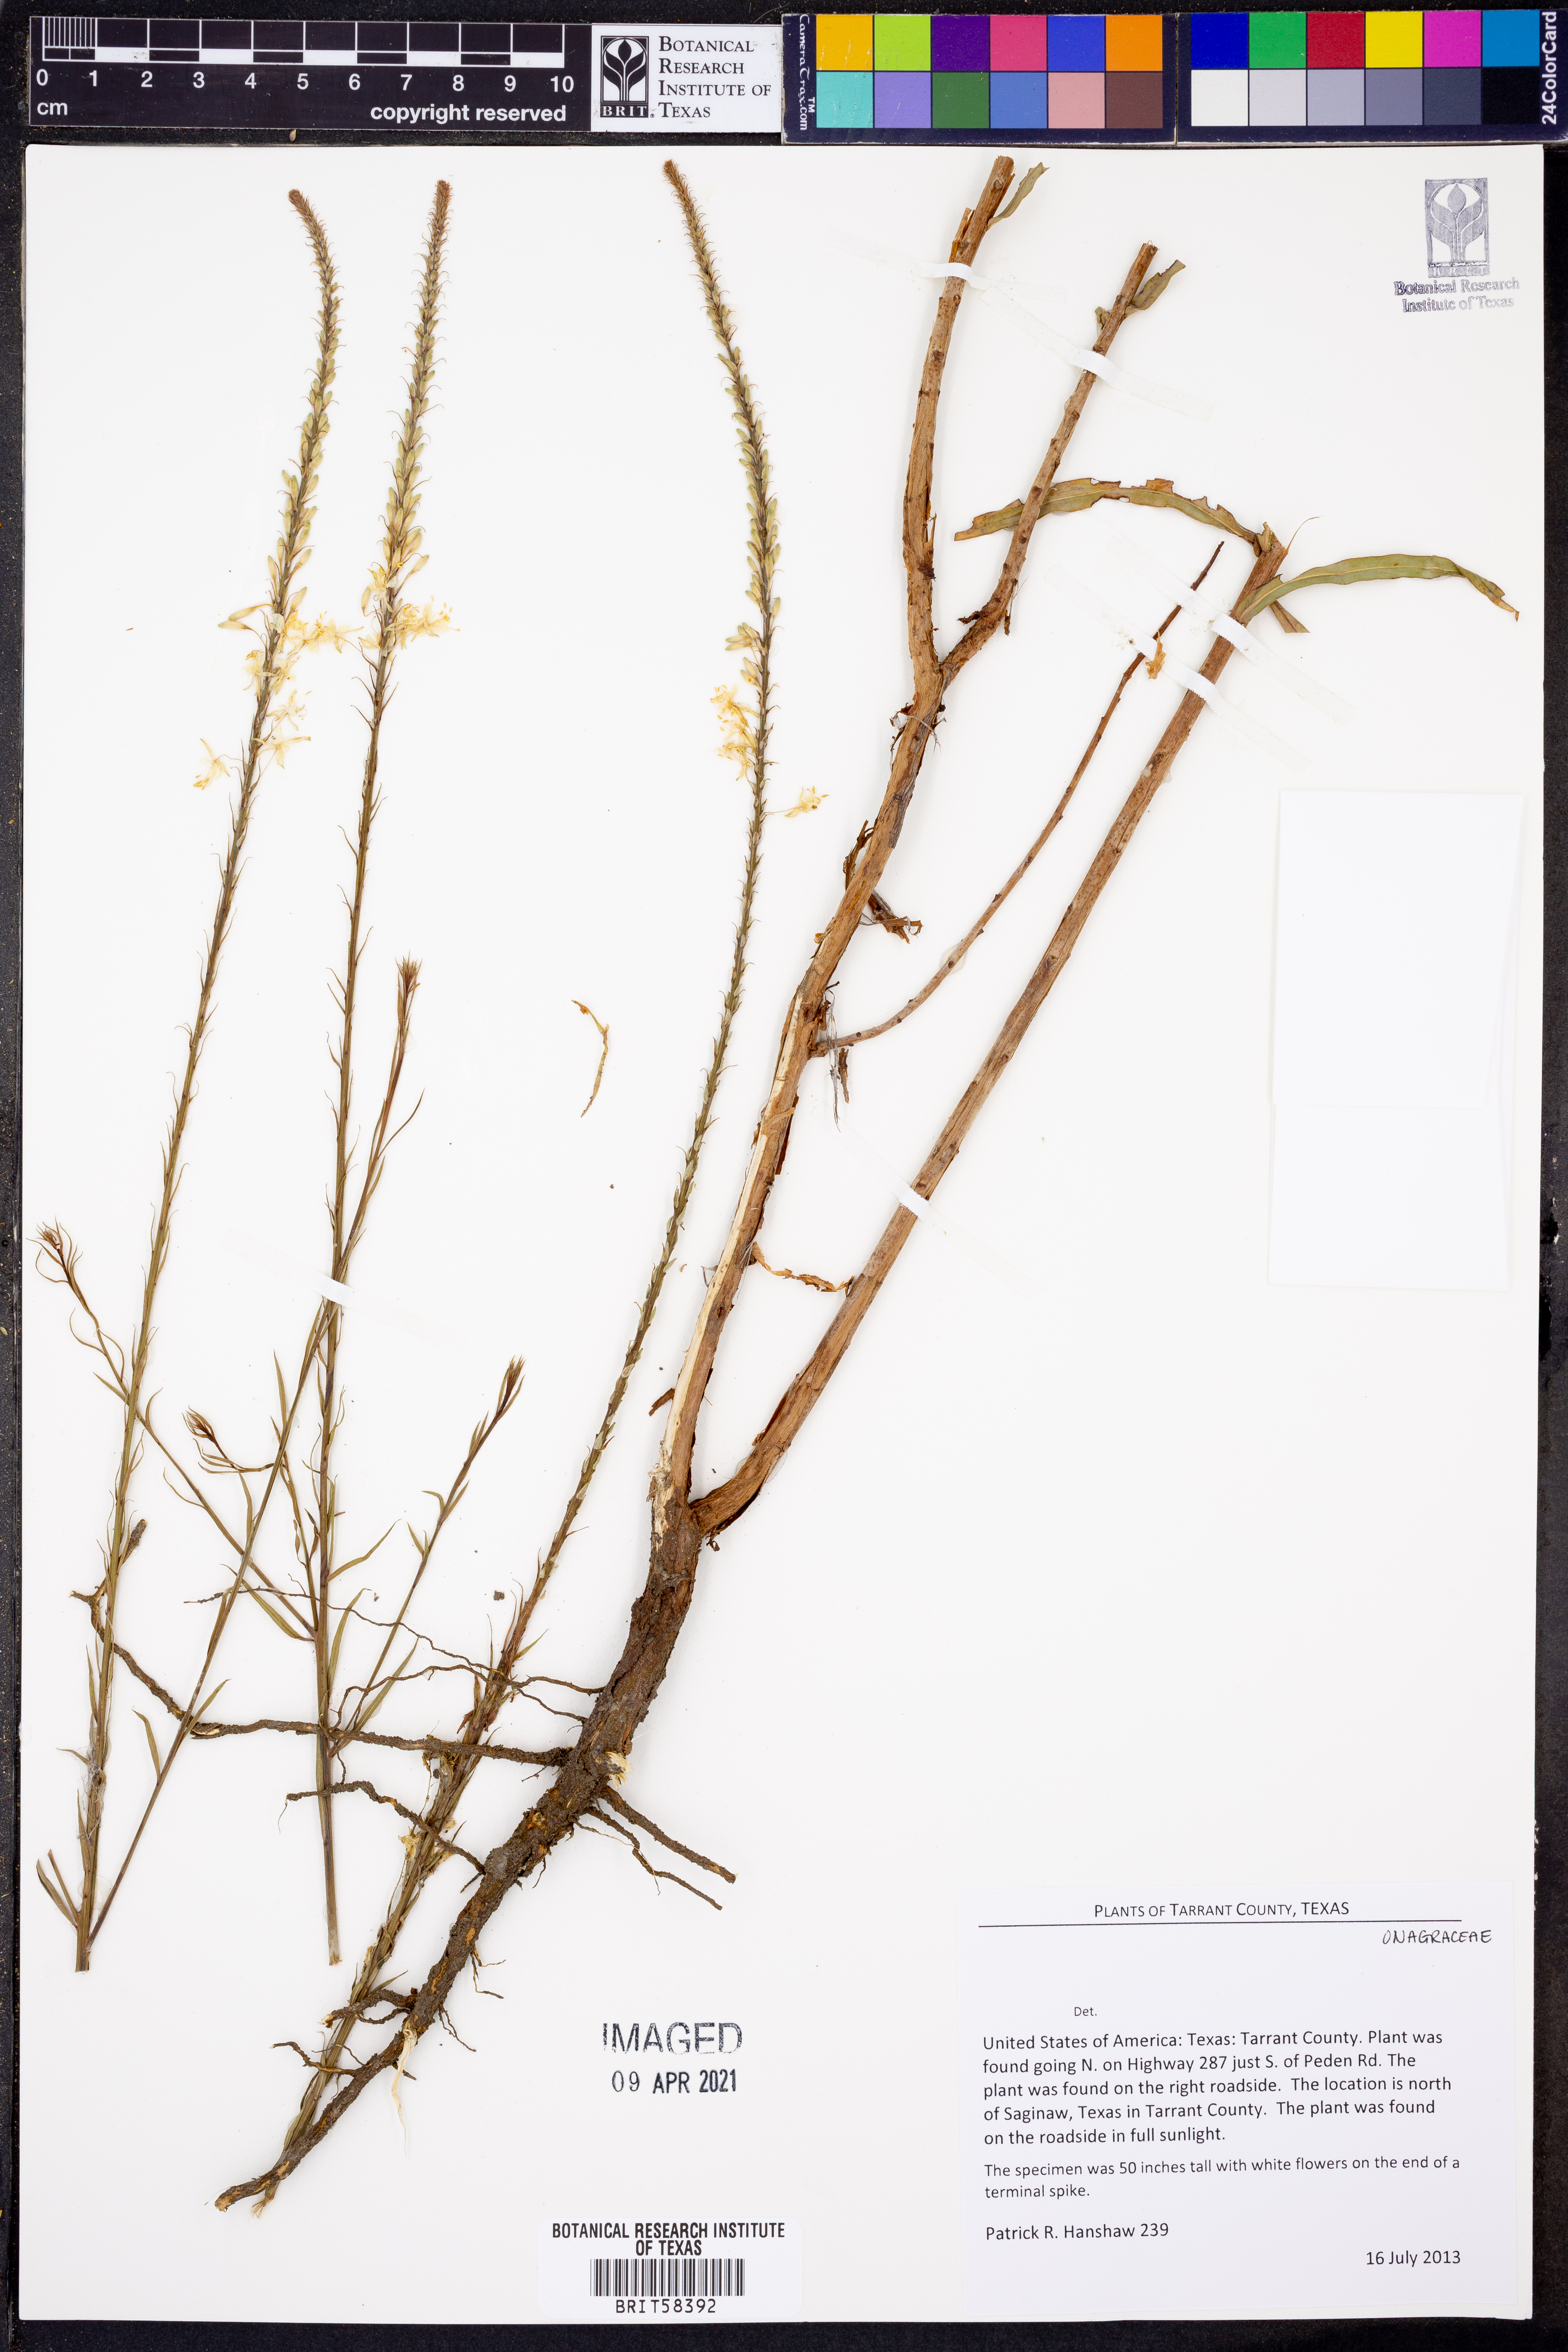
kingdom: Plantae
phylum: Tracheophyta
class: Magnoliopsida
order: Myrtales
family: Onagraceae
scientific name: Onagraceae
